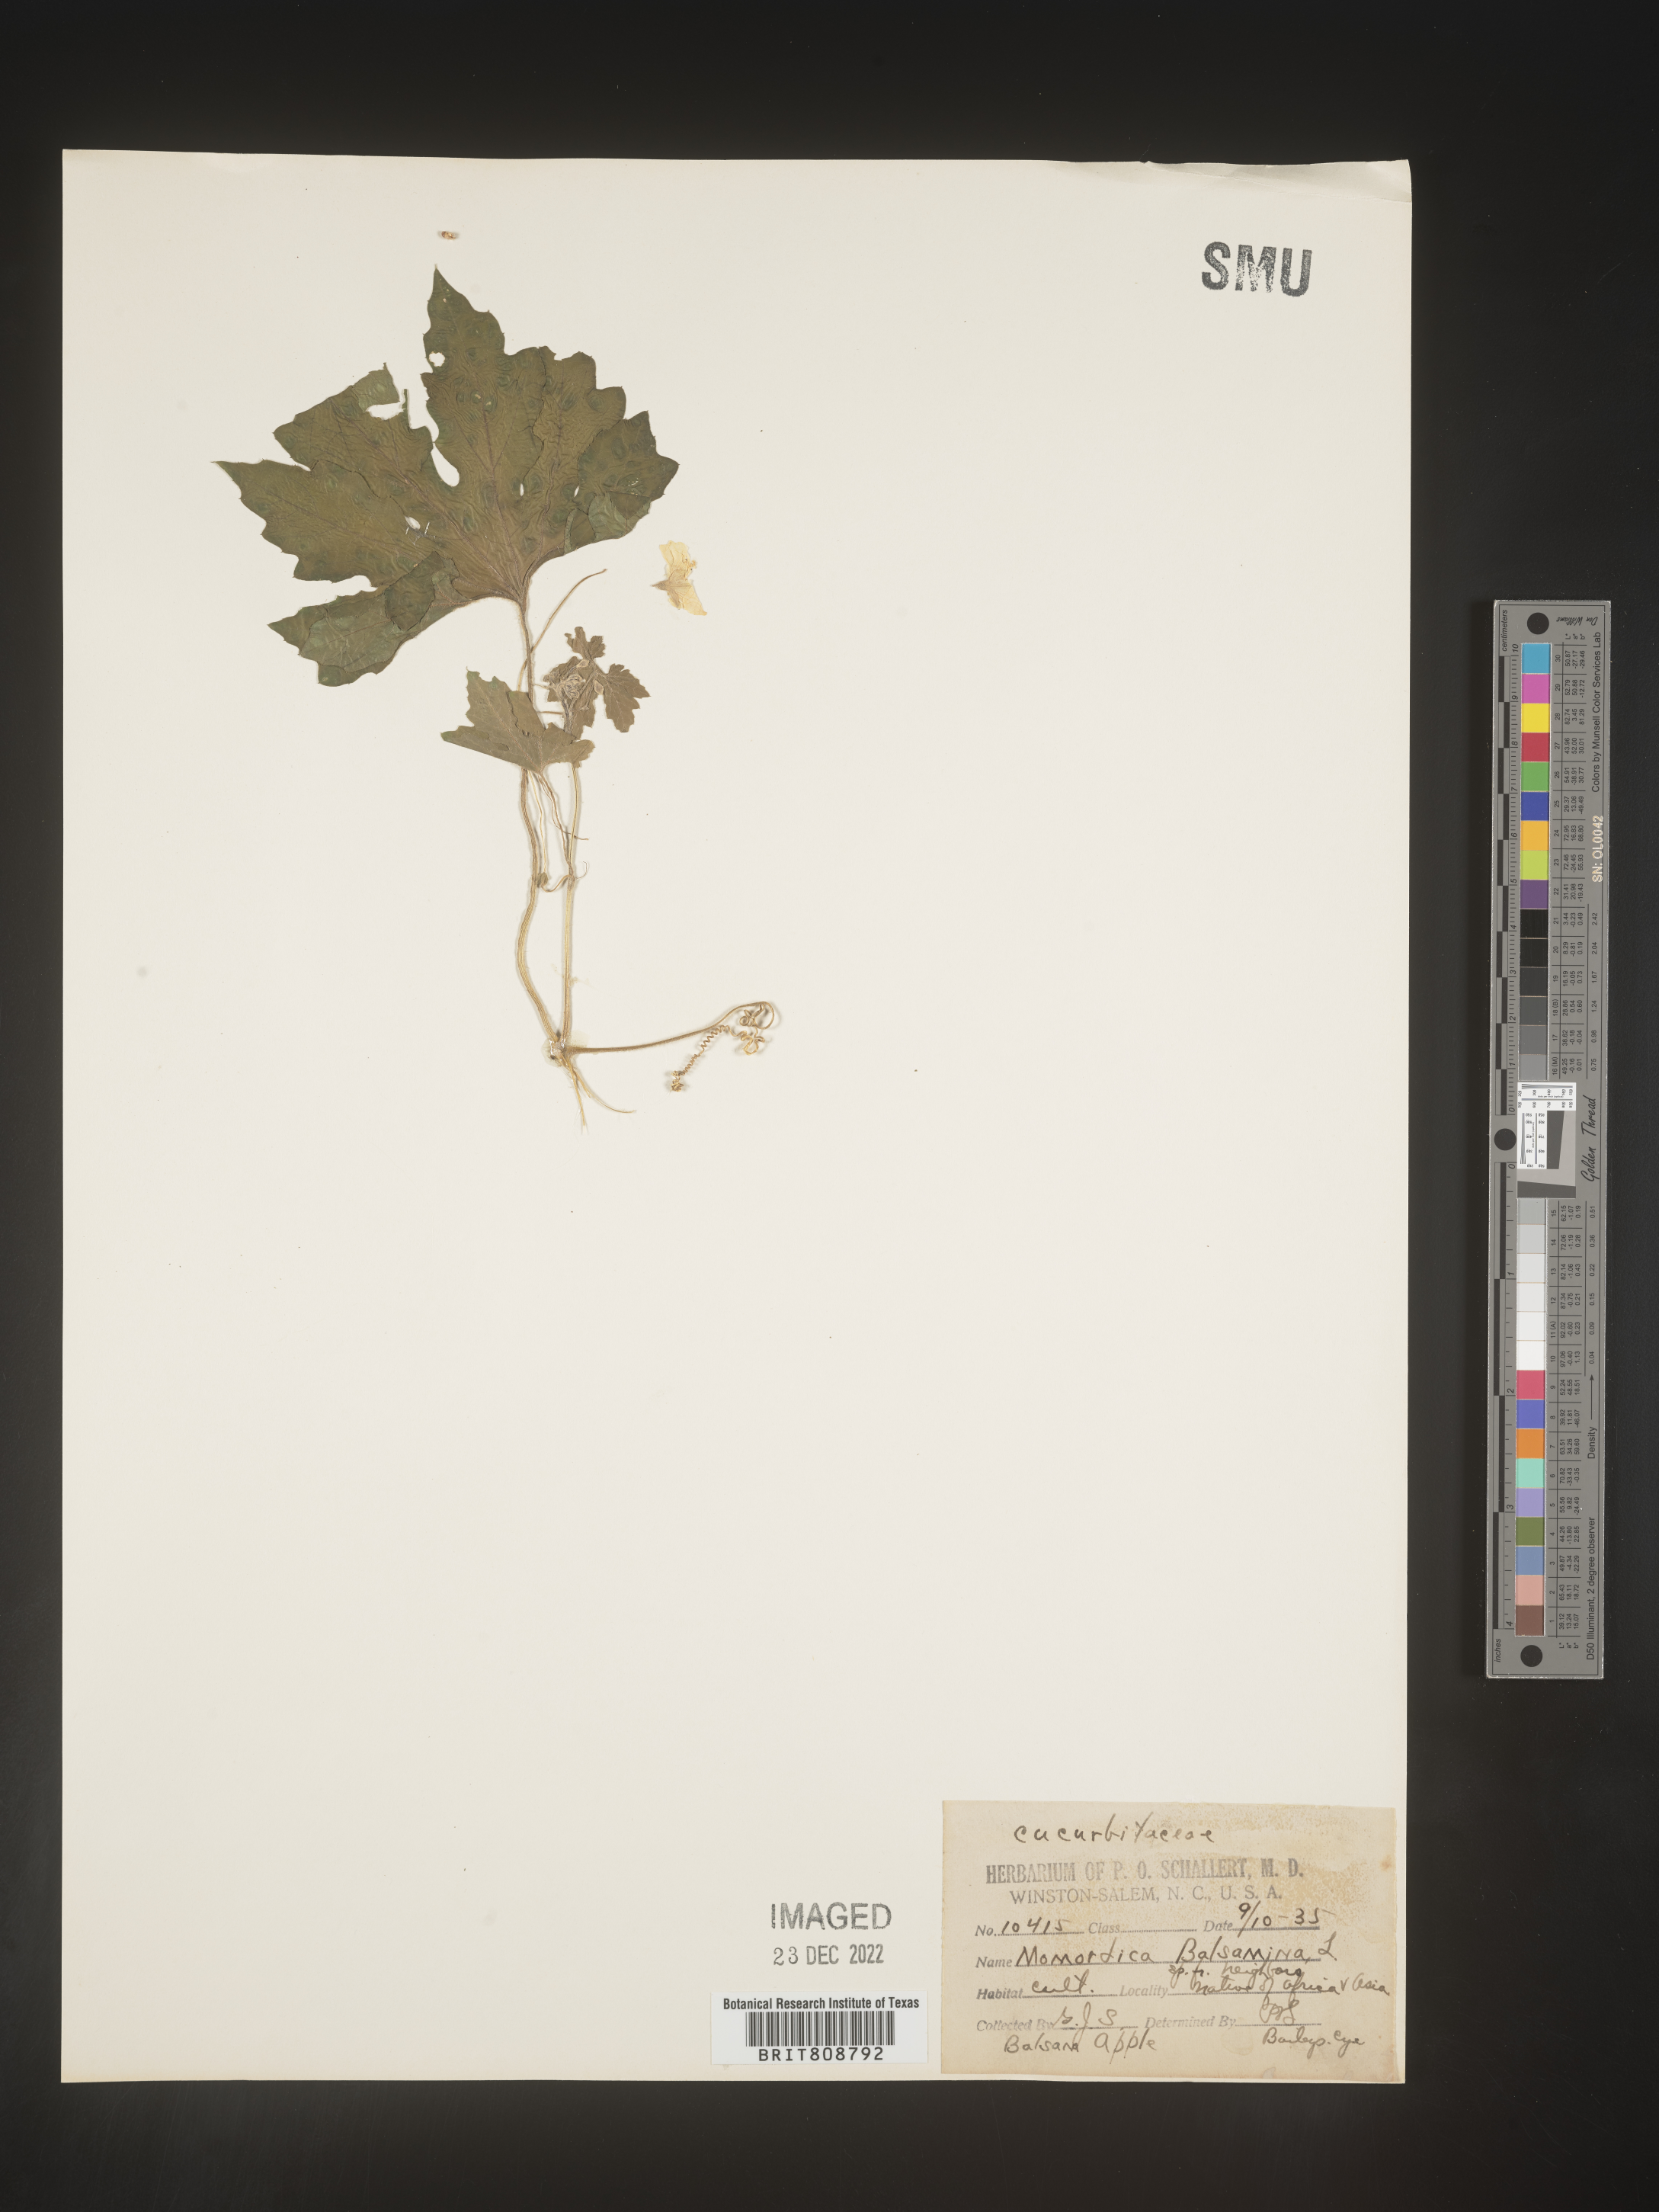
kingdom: Plantae
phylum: Tracheophyta
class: Magnoliopsida
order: Cucurbitales
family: Cucurbitaceae
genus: Momordica
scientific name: Momordica
